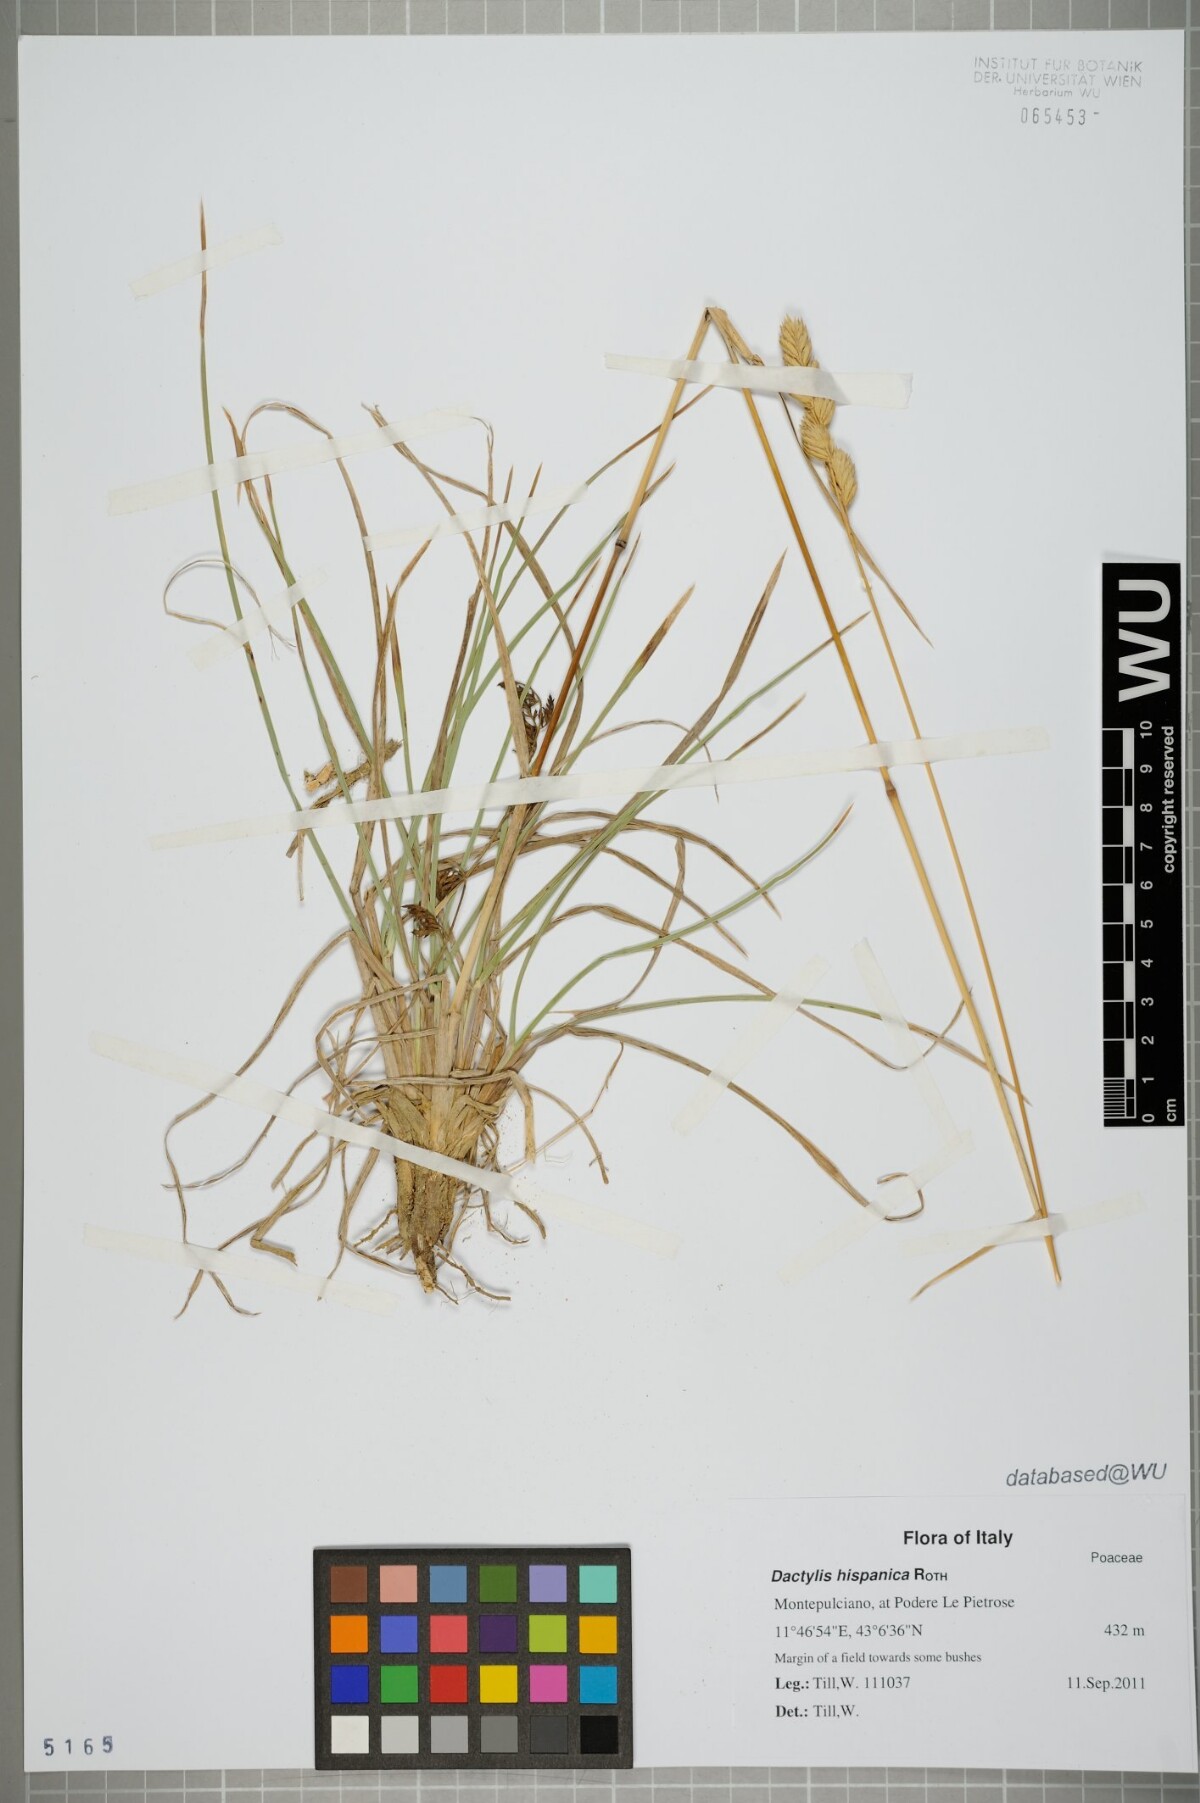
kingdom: Plantae
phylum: Tracheophyta
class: Liliopsida
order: Poales
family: Poaceae
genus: Dactylis
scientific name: Dactylis glomerata
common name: Orchardgrass
